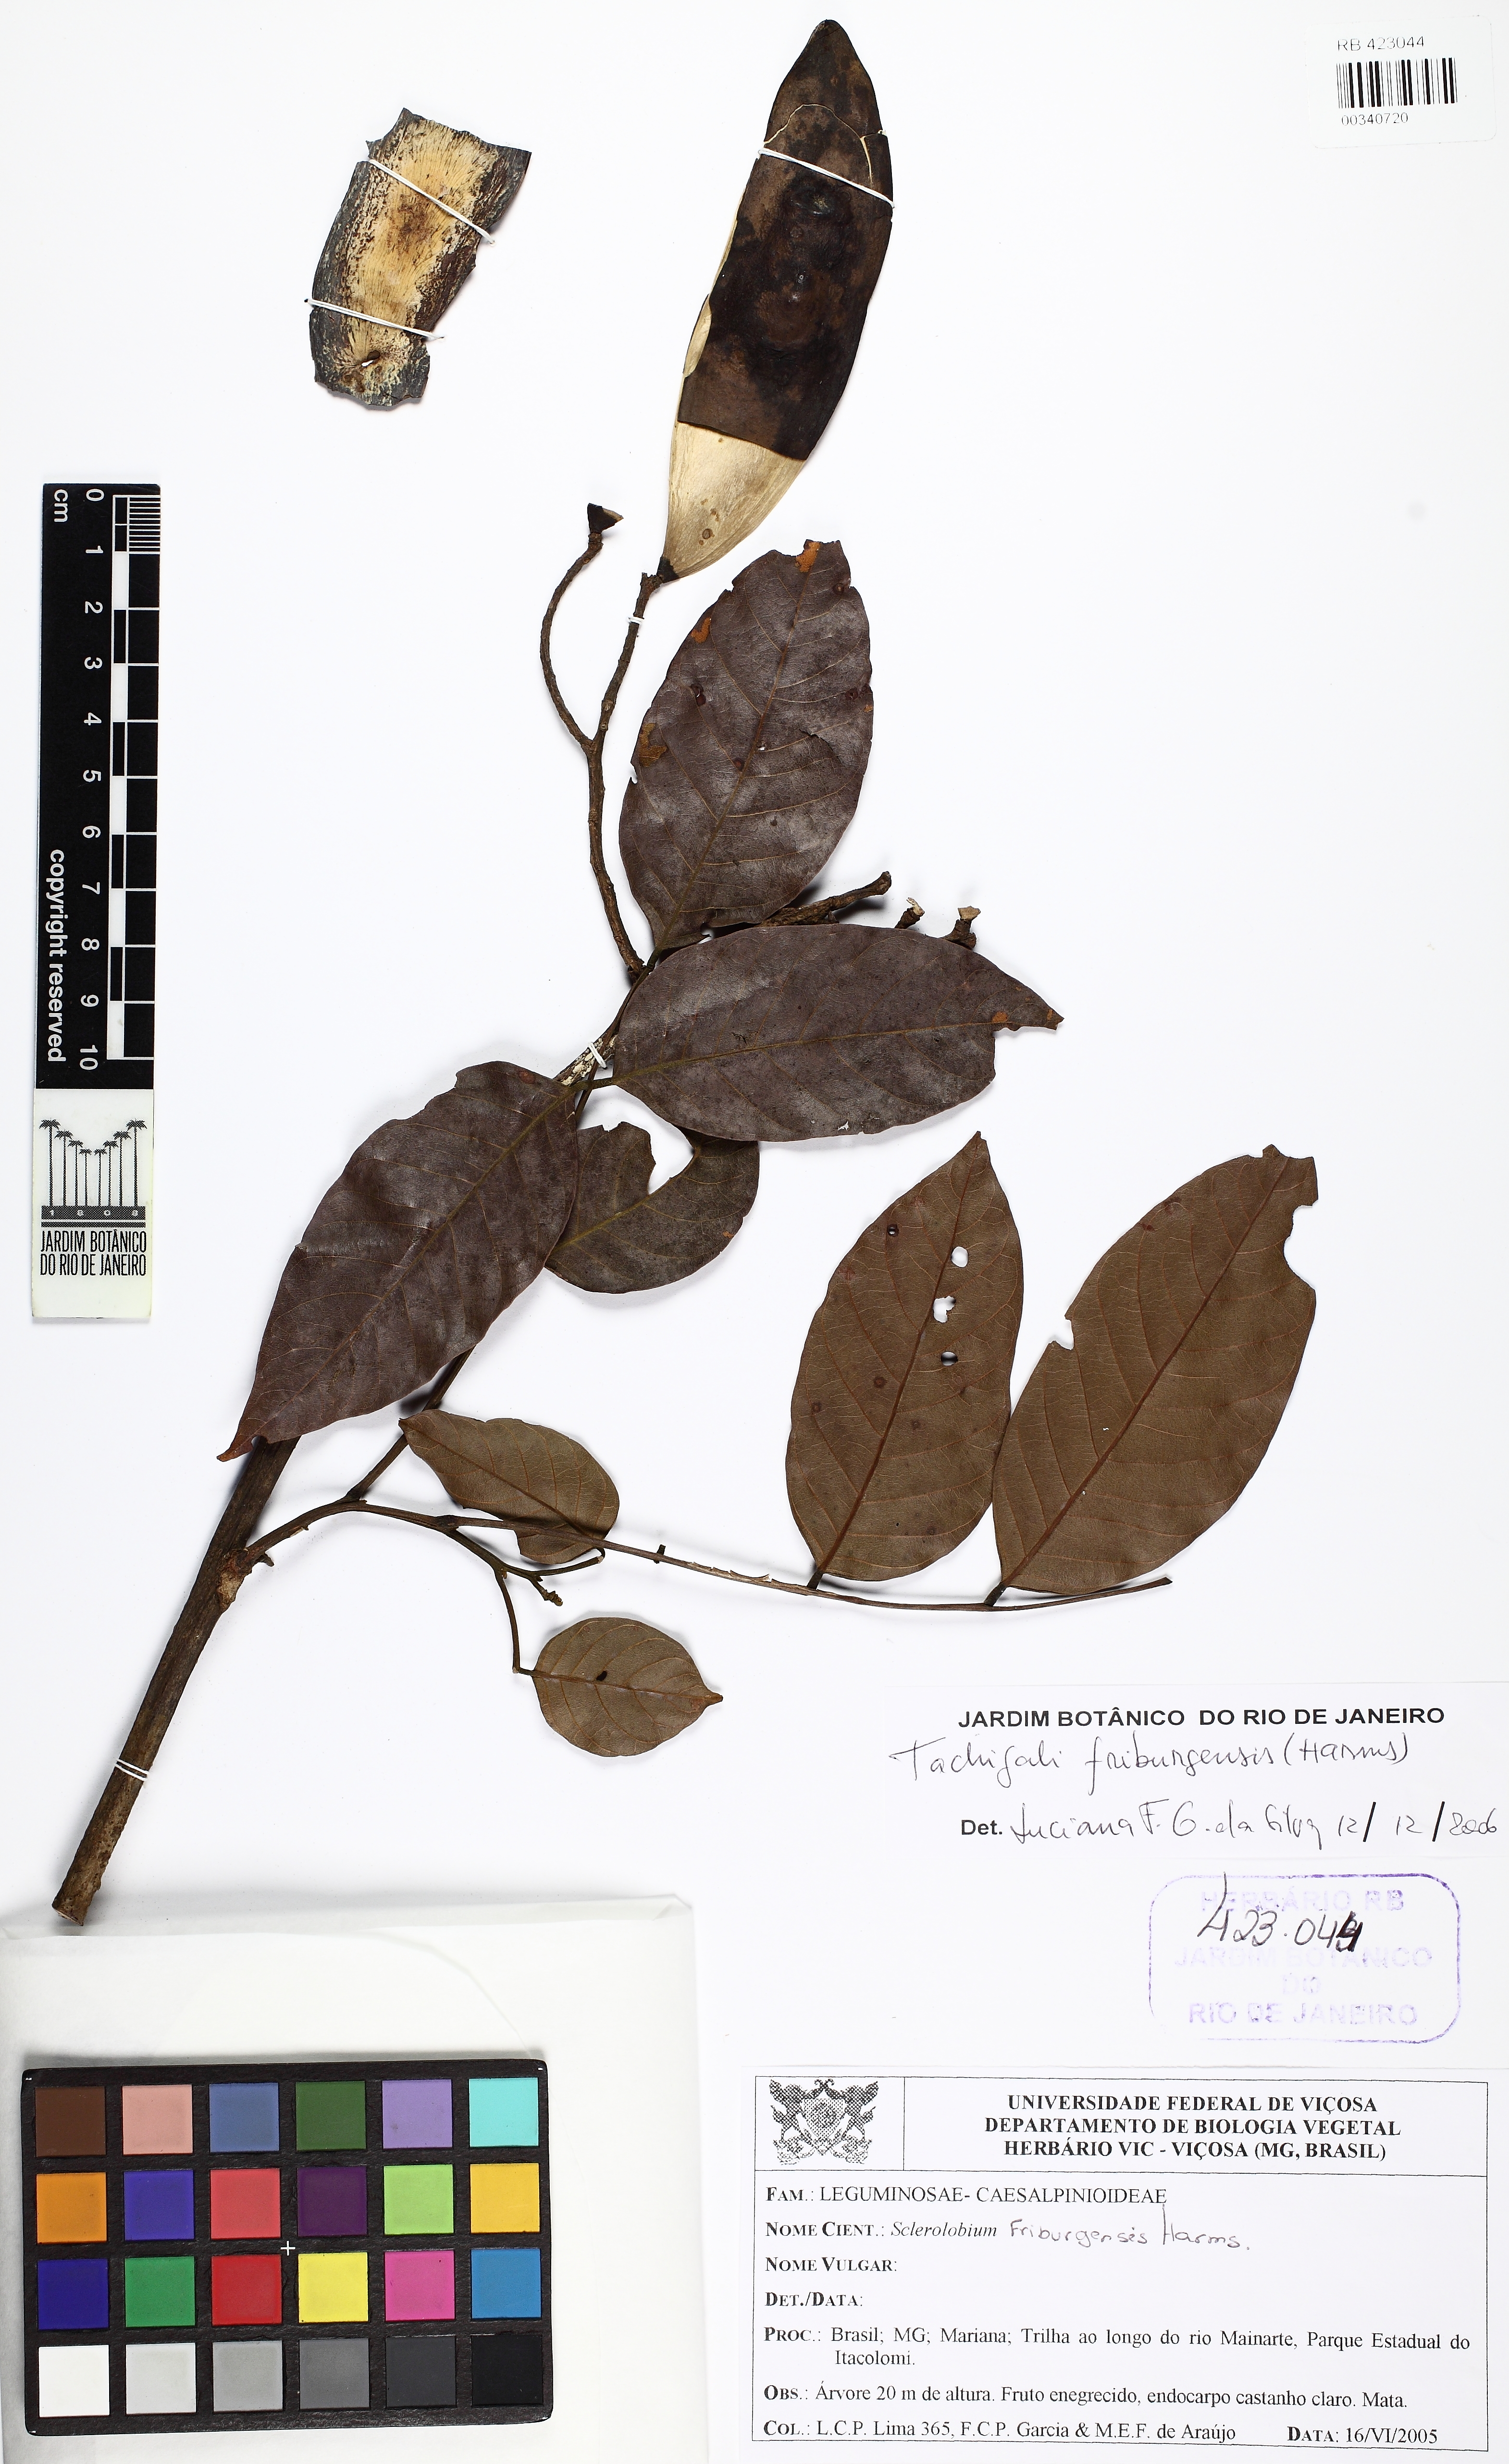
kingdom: Plantae
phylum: Tracheophyta
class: Magnoliopsida
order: Fabales
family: Fabaceae
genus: Tachigali
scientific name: Tachigali friburgensis
